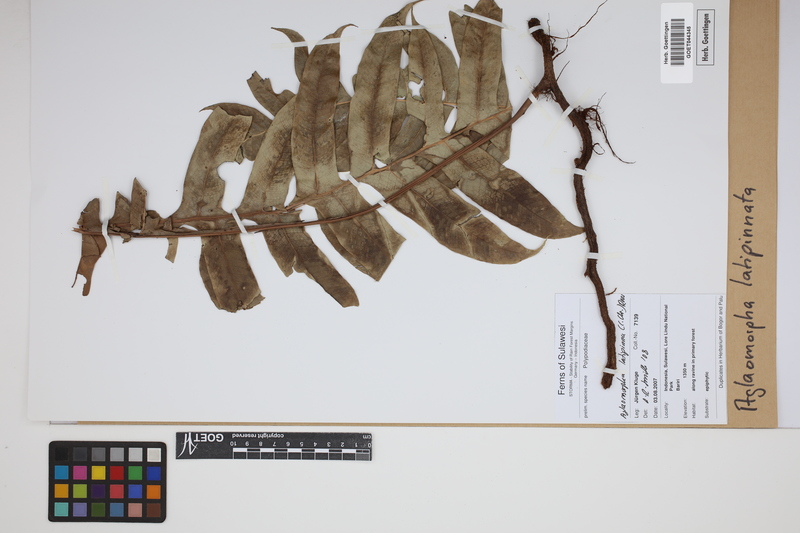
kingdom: Plantae
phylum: Tracheophyta
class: Polypodiopsida
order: Polypodiales
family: Polypodiaceae
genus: Drynaria
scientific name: Drynaria heraclea
